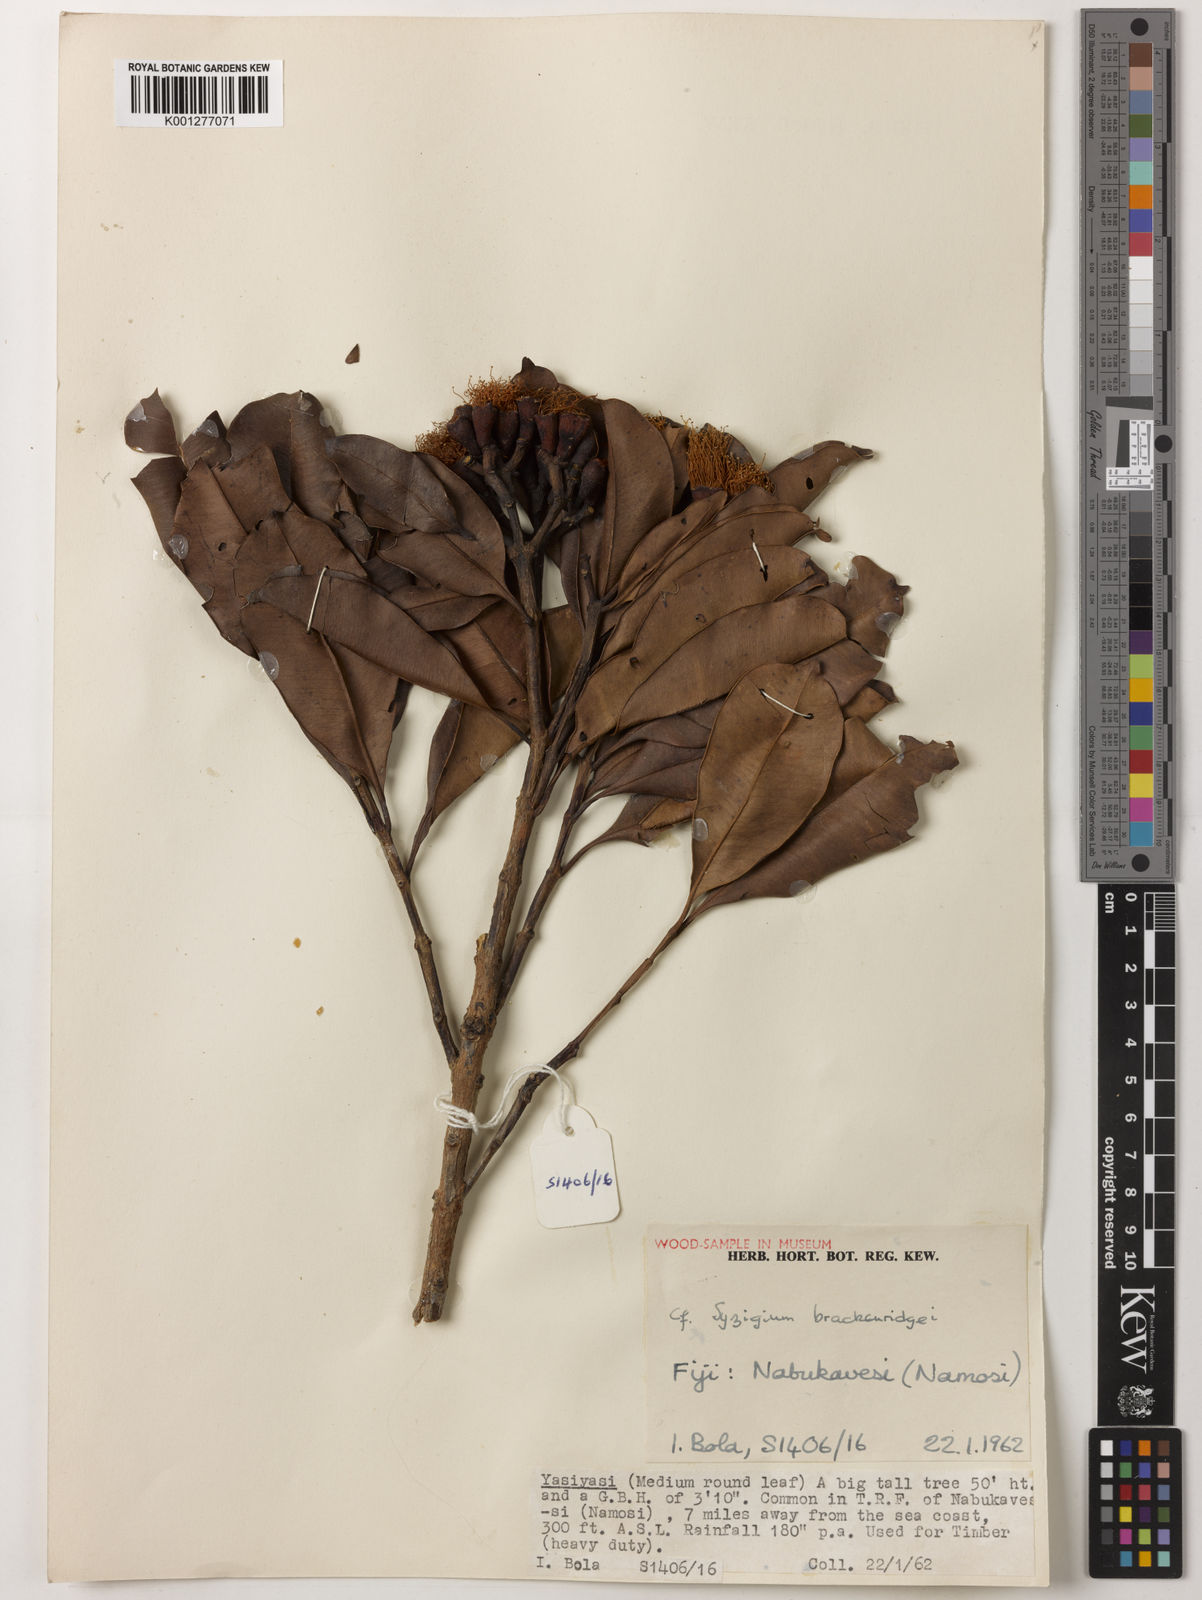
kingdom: Plantae
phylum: Tracheophyta
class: Magnoliopsida
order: Myrtales
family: Myrtaceae
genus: Syzygium
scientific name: Syzygium
